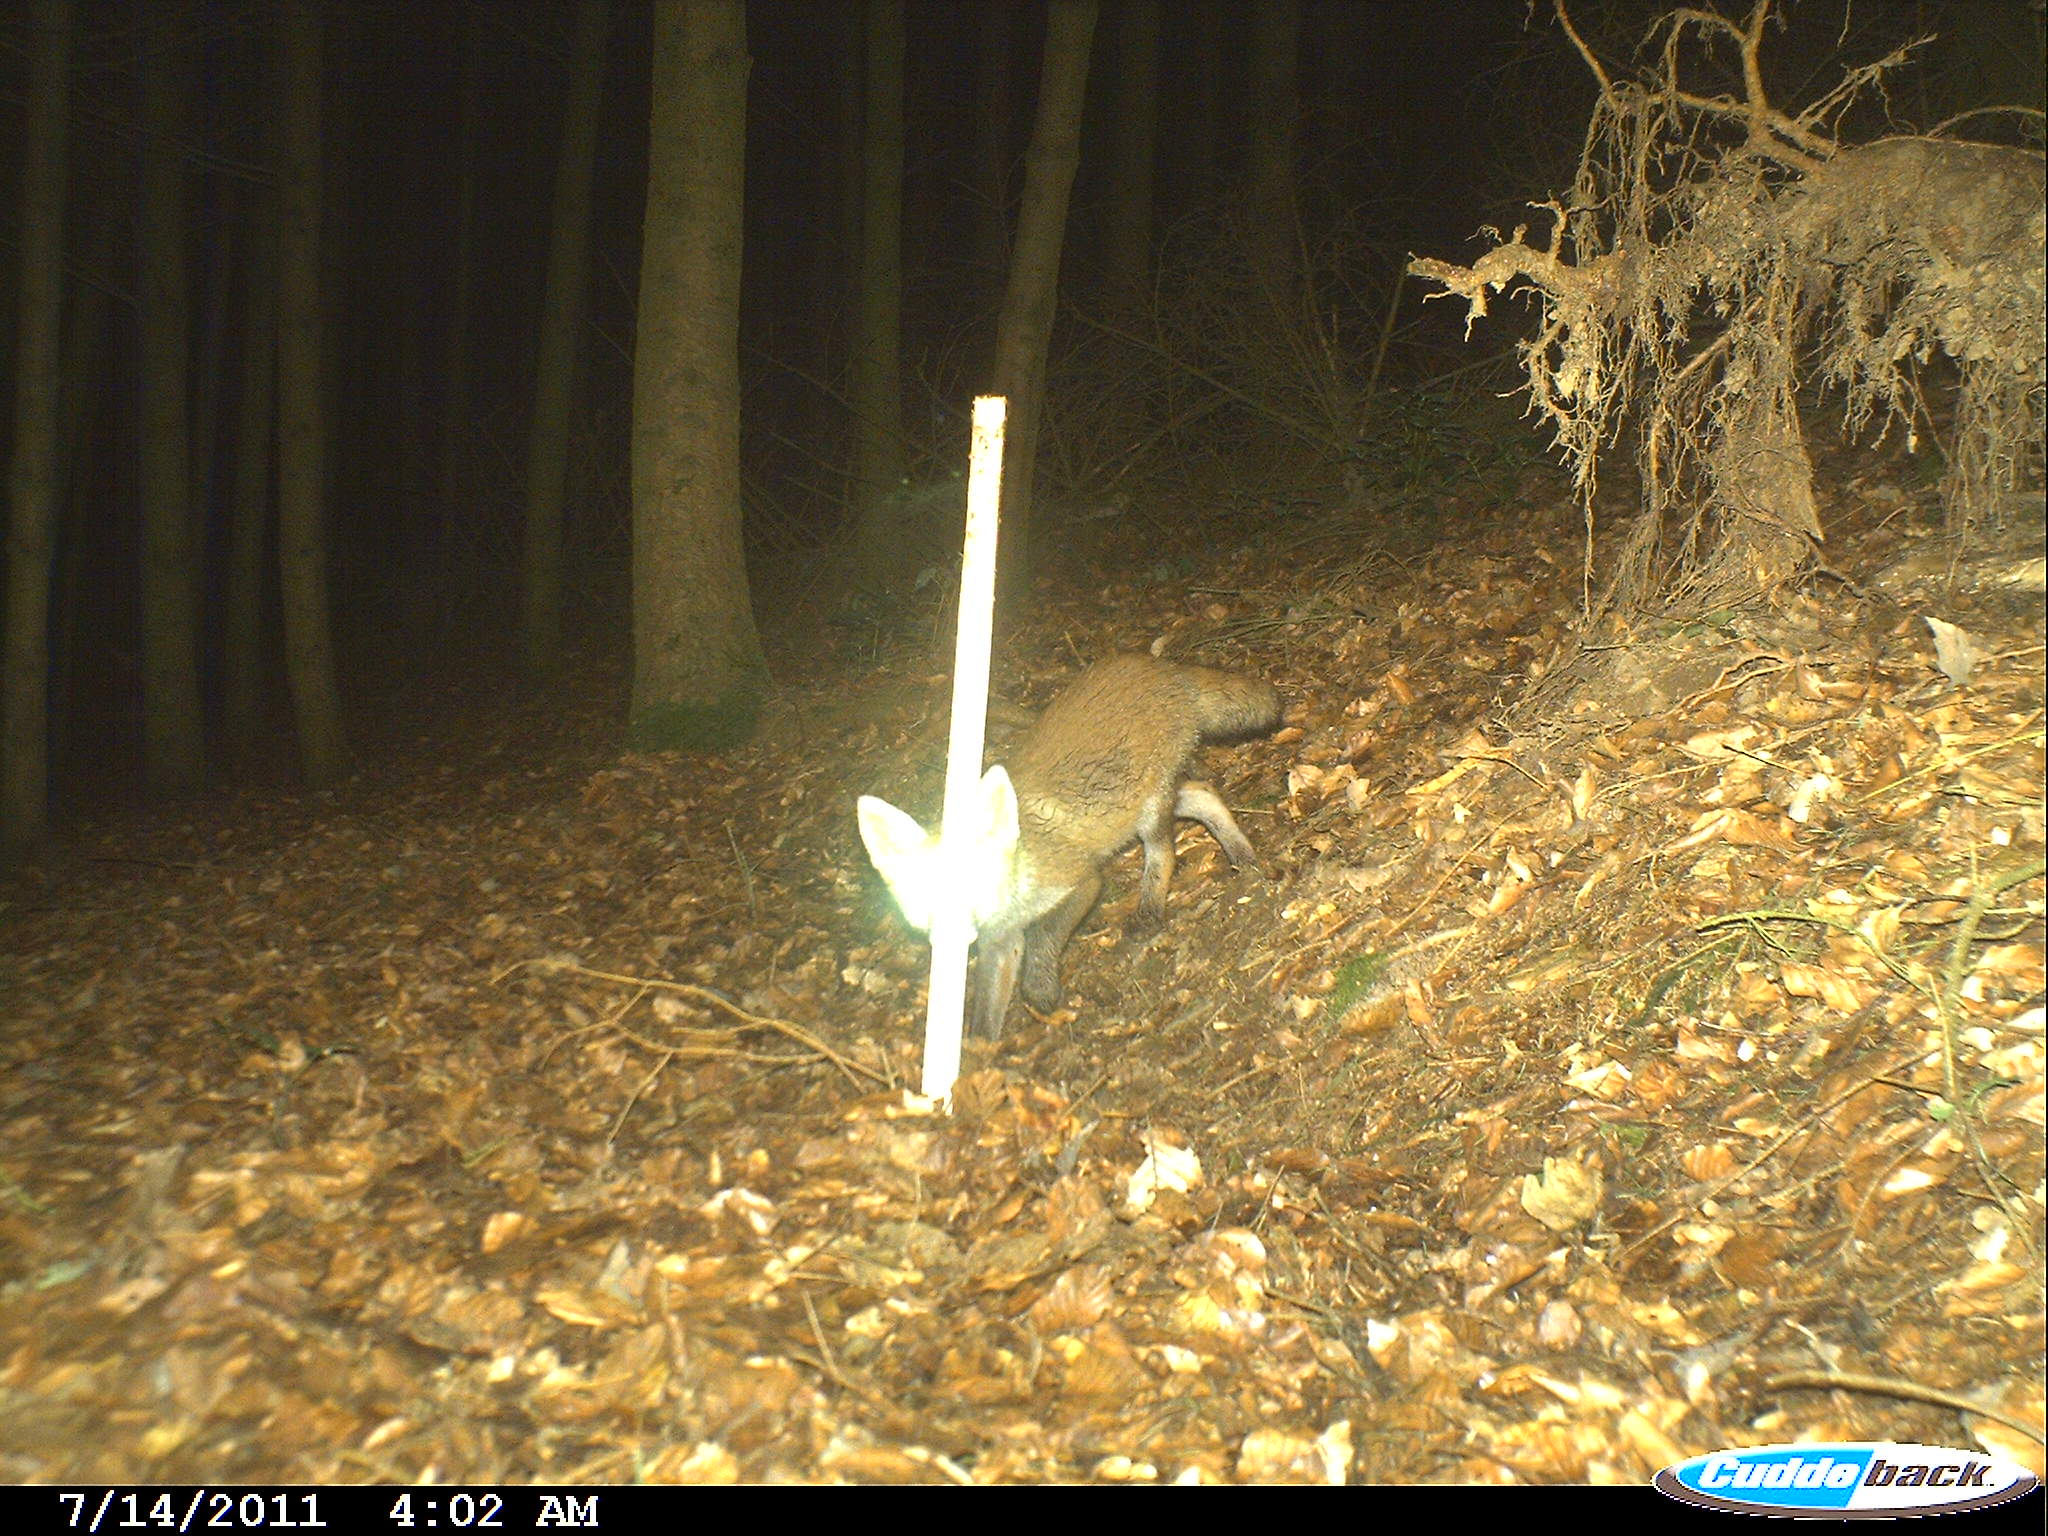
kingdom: Animalia
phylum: Chordata
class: Mammalia
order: Carnivora
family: Canidae
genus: Vulpes
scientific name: Vulpes vulpes
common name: Red fox
